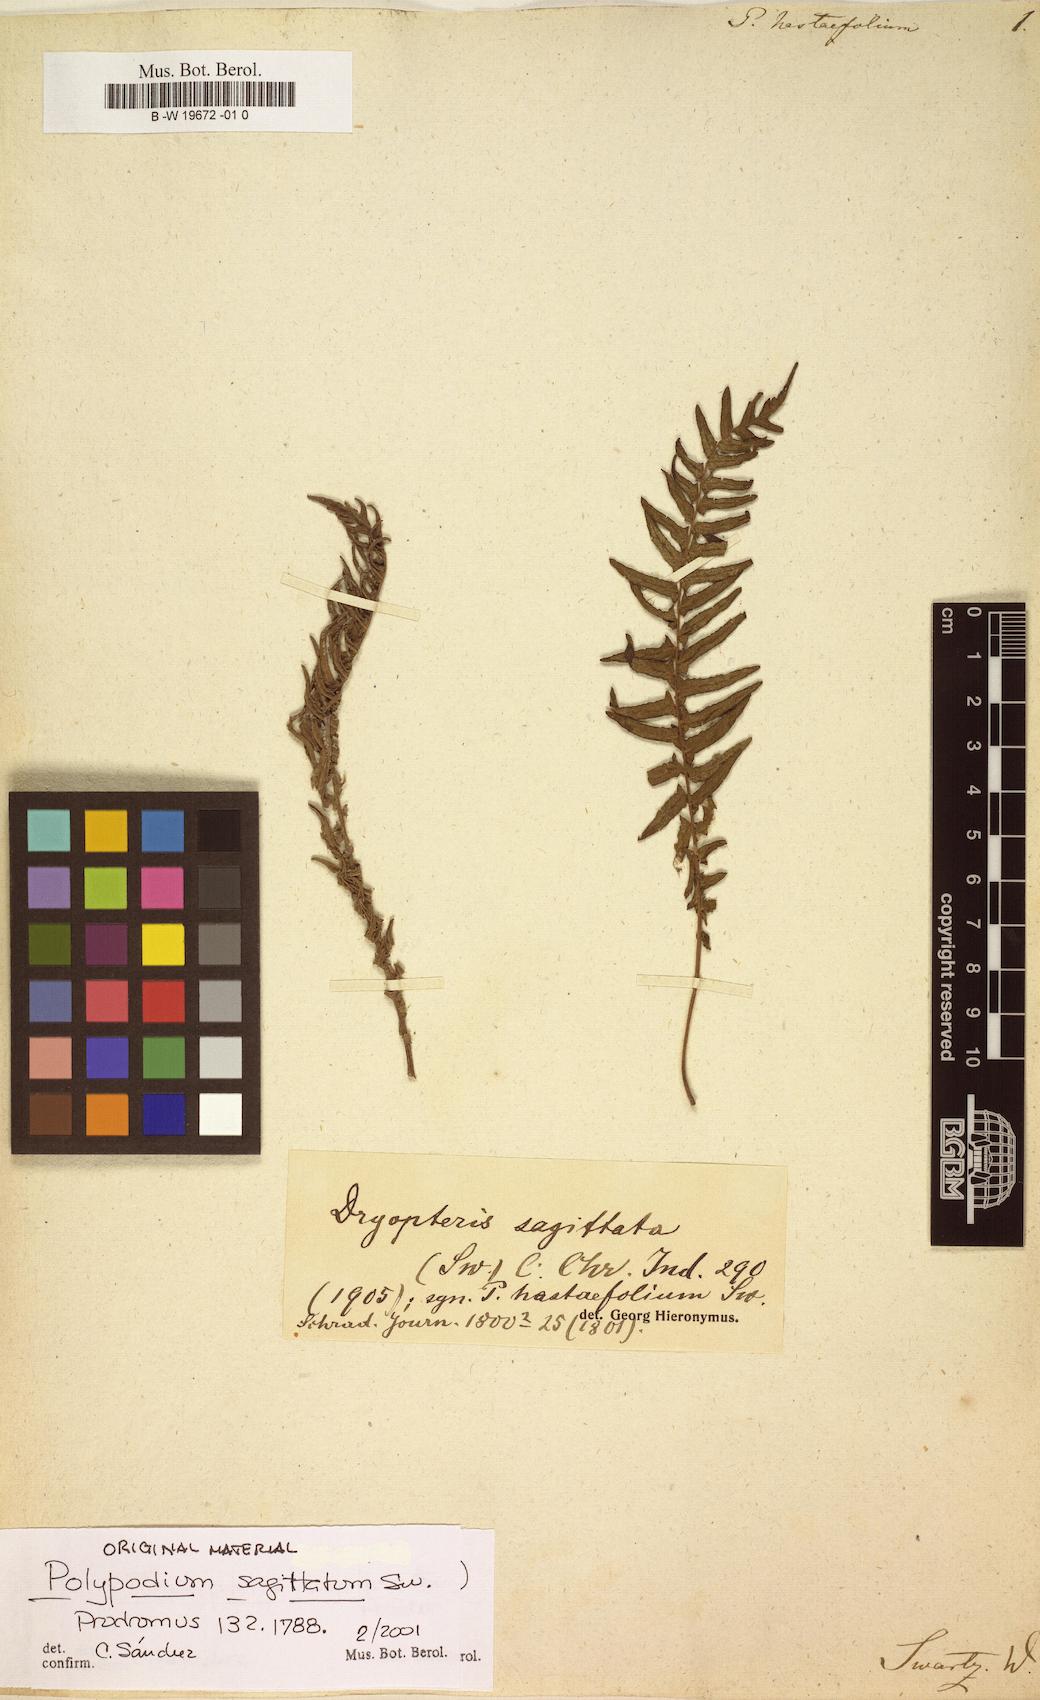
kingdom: Plantae
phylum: Tracheophyta
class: Polypodiopsida
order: Polypodiales
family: Thelypteridaceae
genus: Goniopteris
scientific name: Goniopteris sagittata
